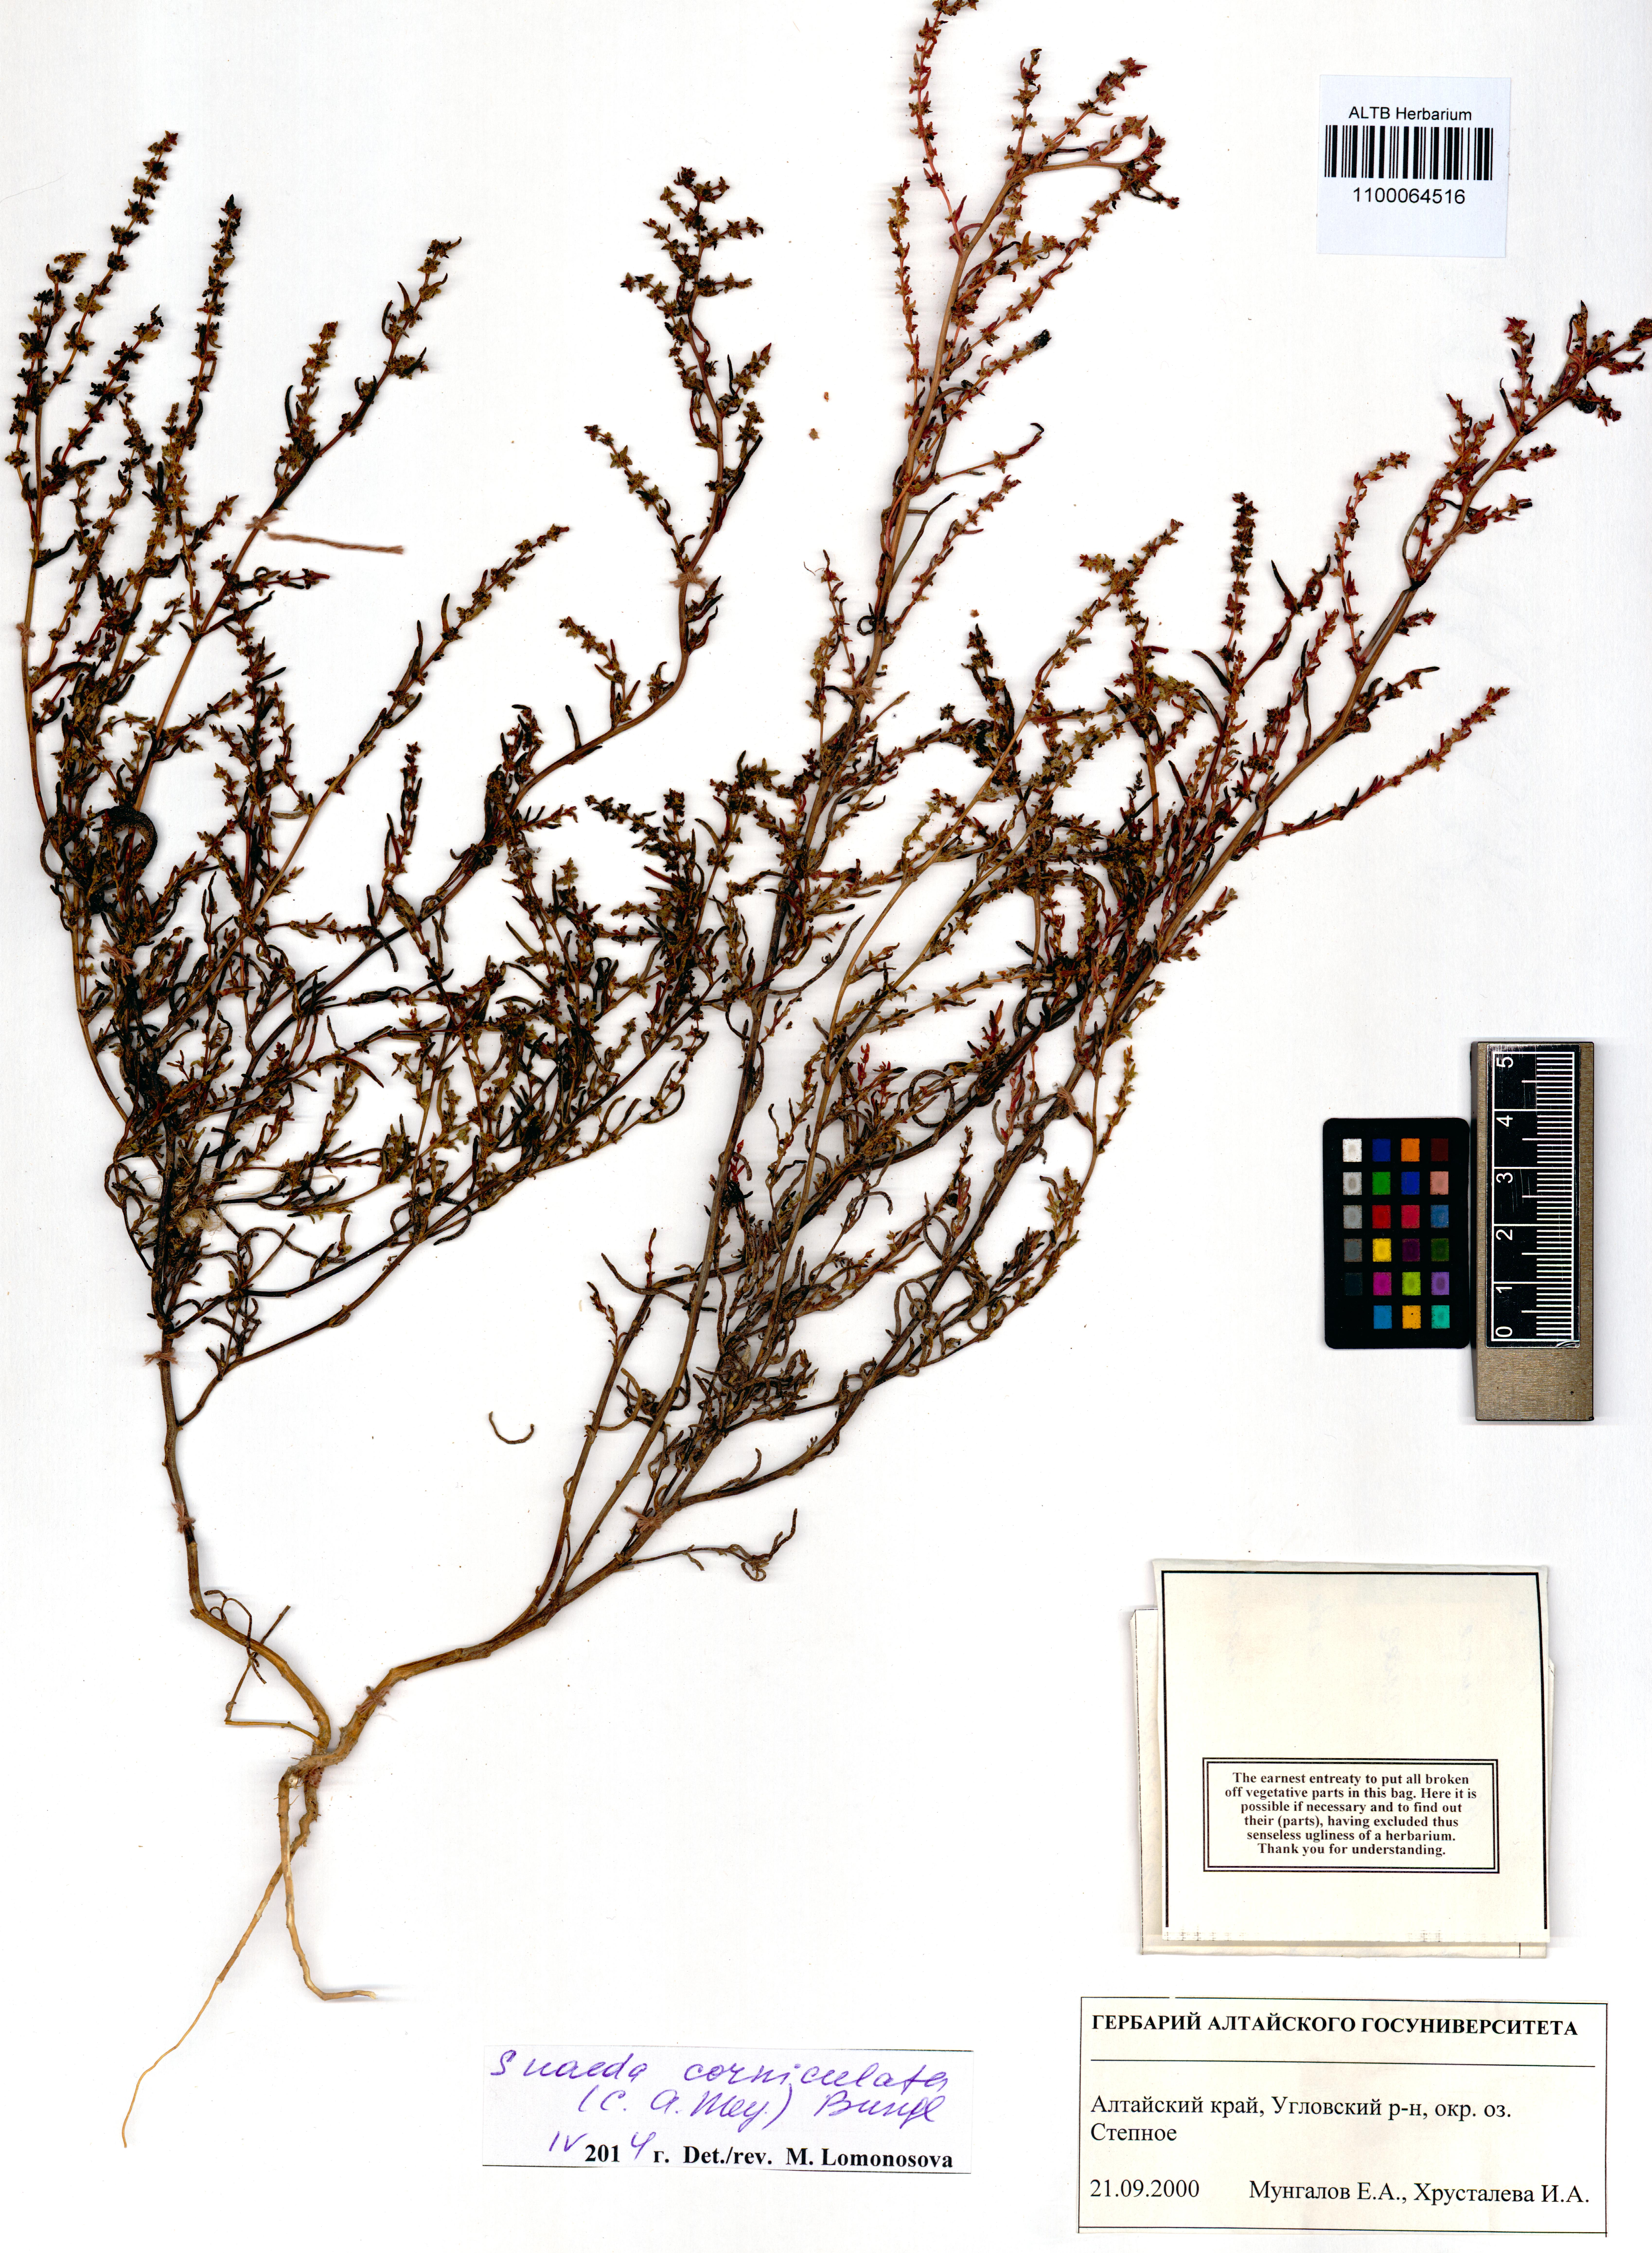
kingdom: Plantae
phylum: Tracheophyta
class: Magnoliopsida
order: Caryophyllales
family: Amaranthaceae
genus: Suaeda
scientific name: Suaeda corniculata
